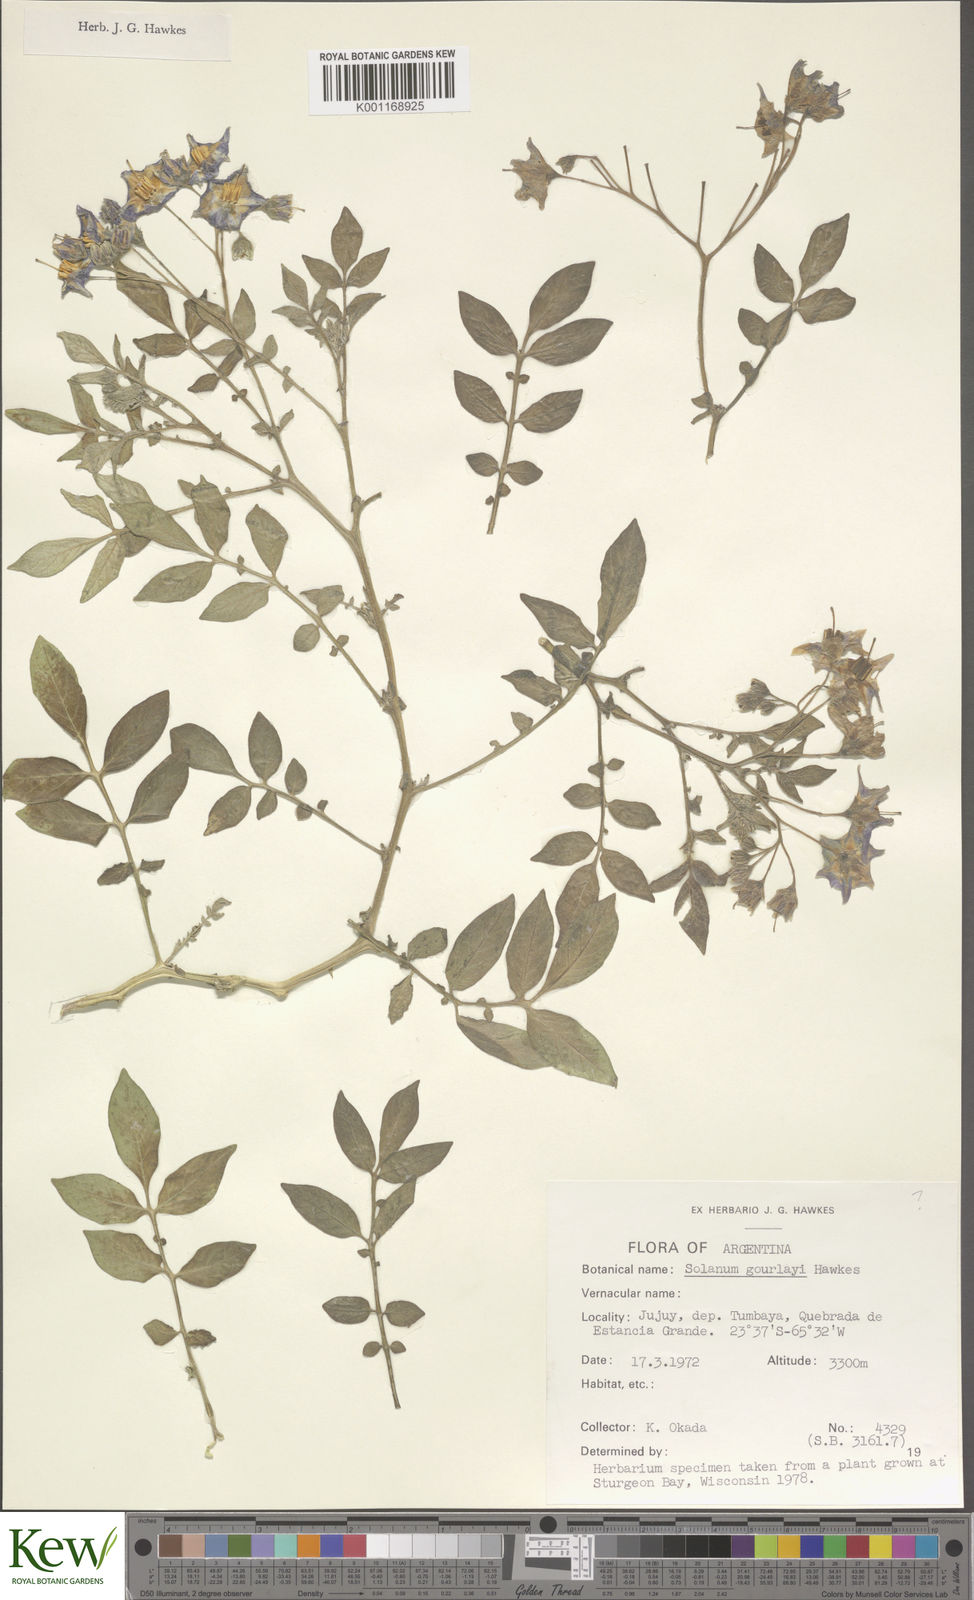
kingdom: Plantae
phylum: Tracheophyta
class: Magnoliopsida
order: Solanales
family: Solanaceae
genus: Solanum
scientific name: Solanum brevicaule
